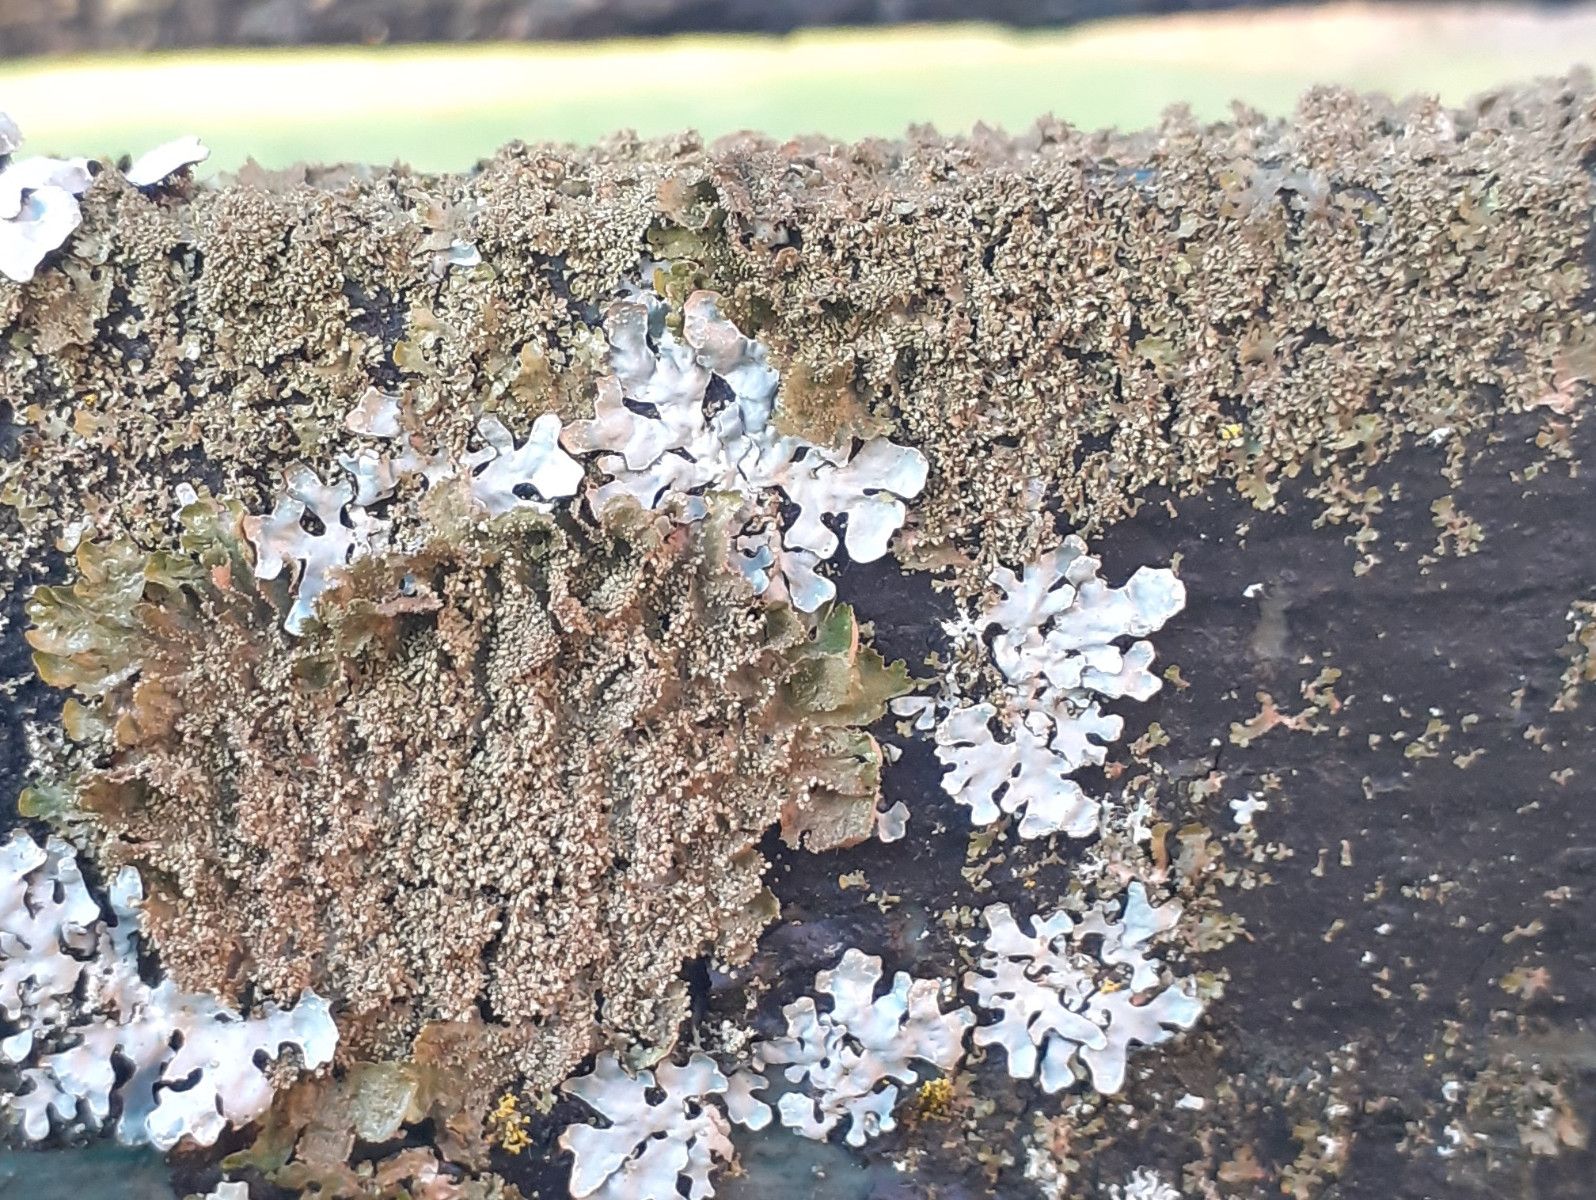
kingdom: Fungi
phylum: Ascomycota
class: Lecanoromycetes
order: Lecanorales
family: Parmeliaceae
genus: Melanohalea
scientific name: Melanohalea exasperatula
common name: kølle-skållav
